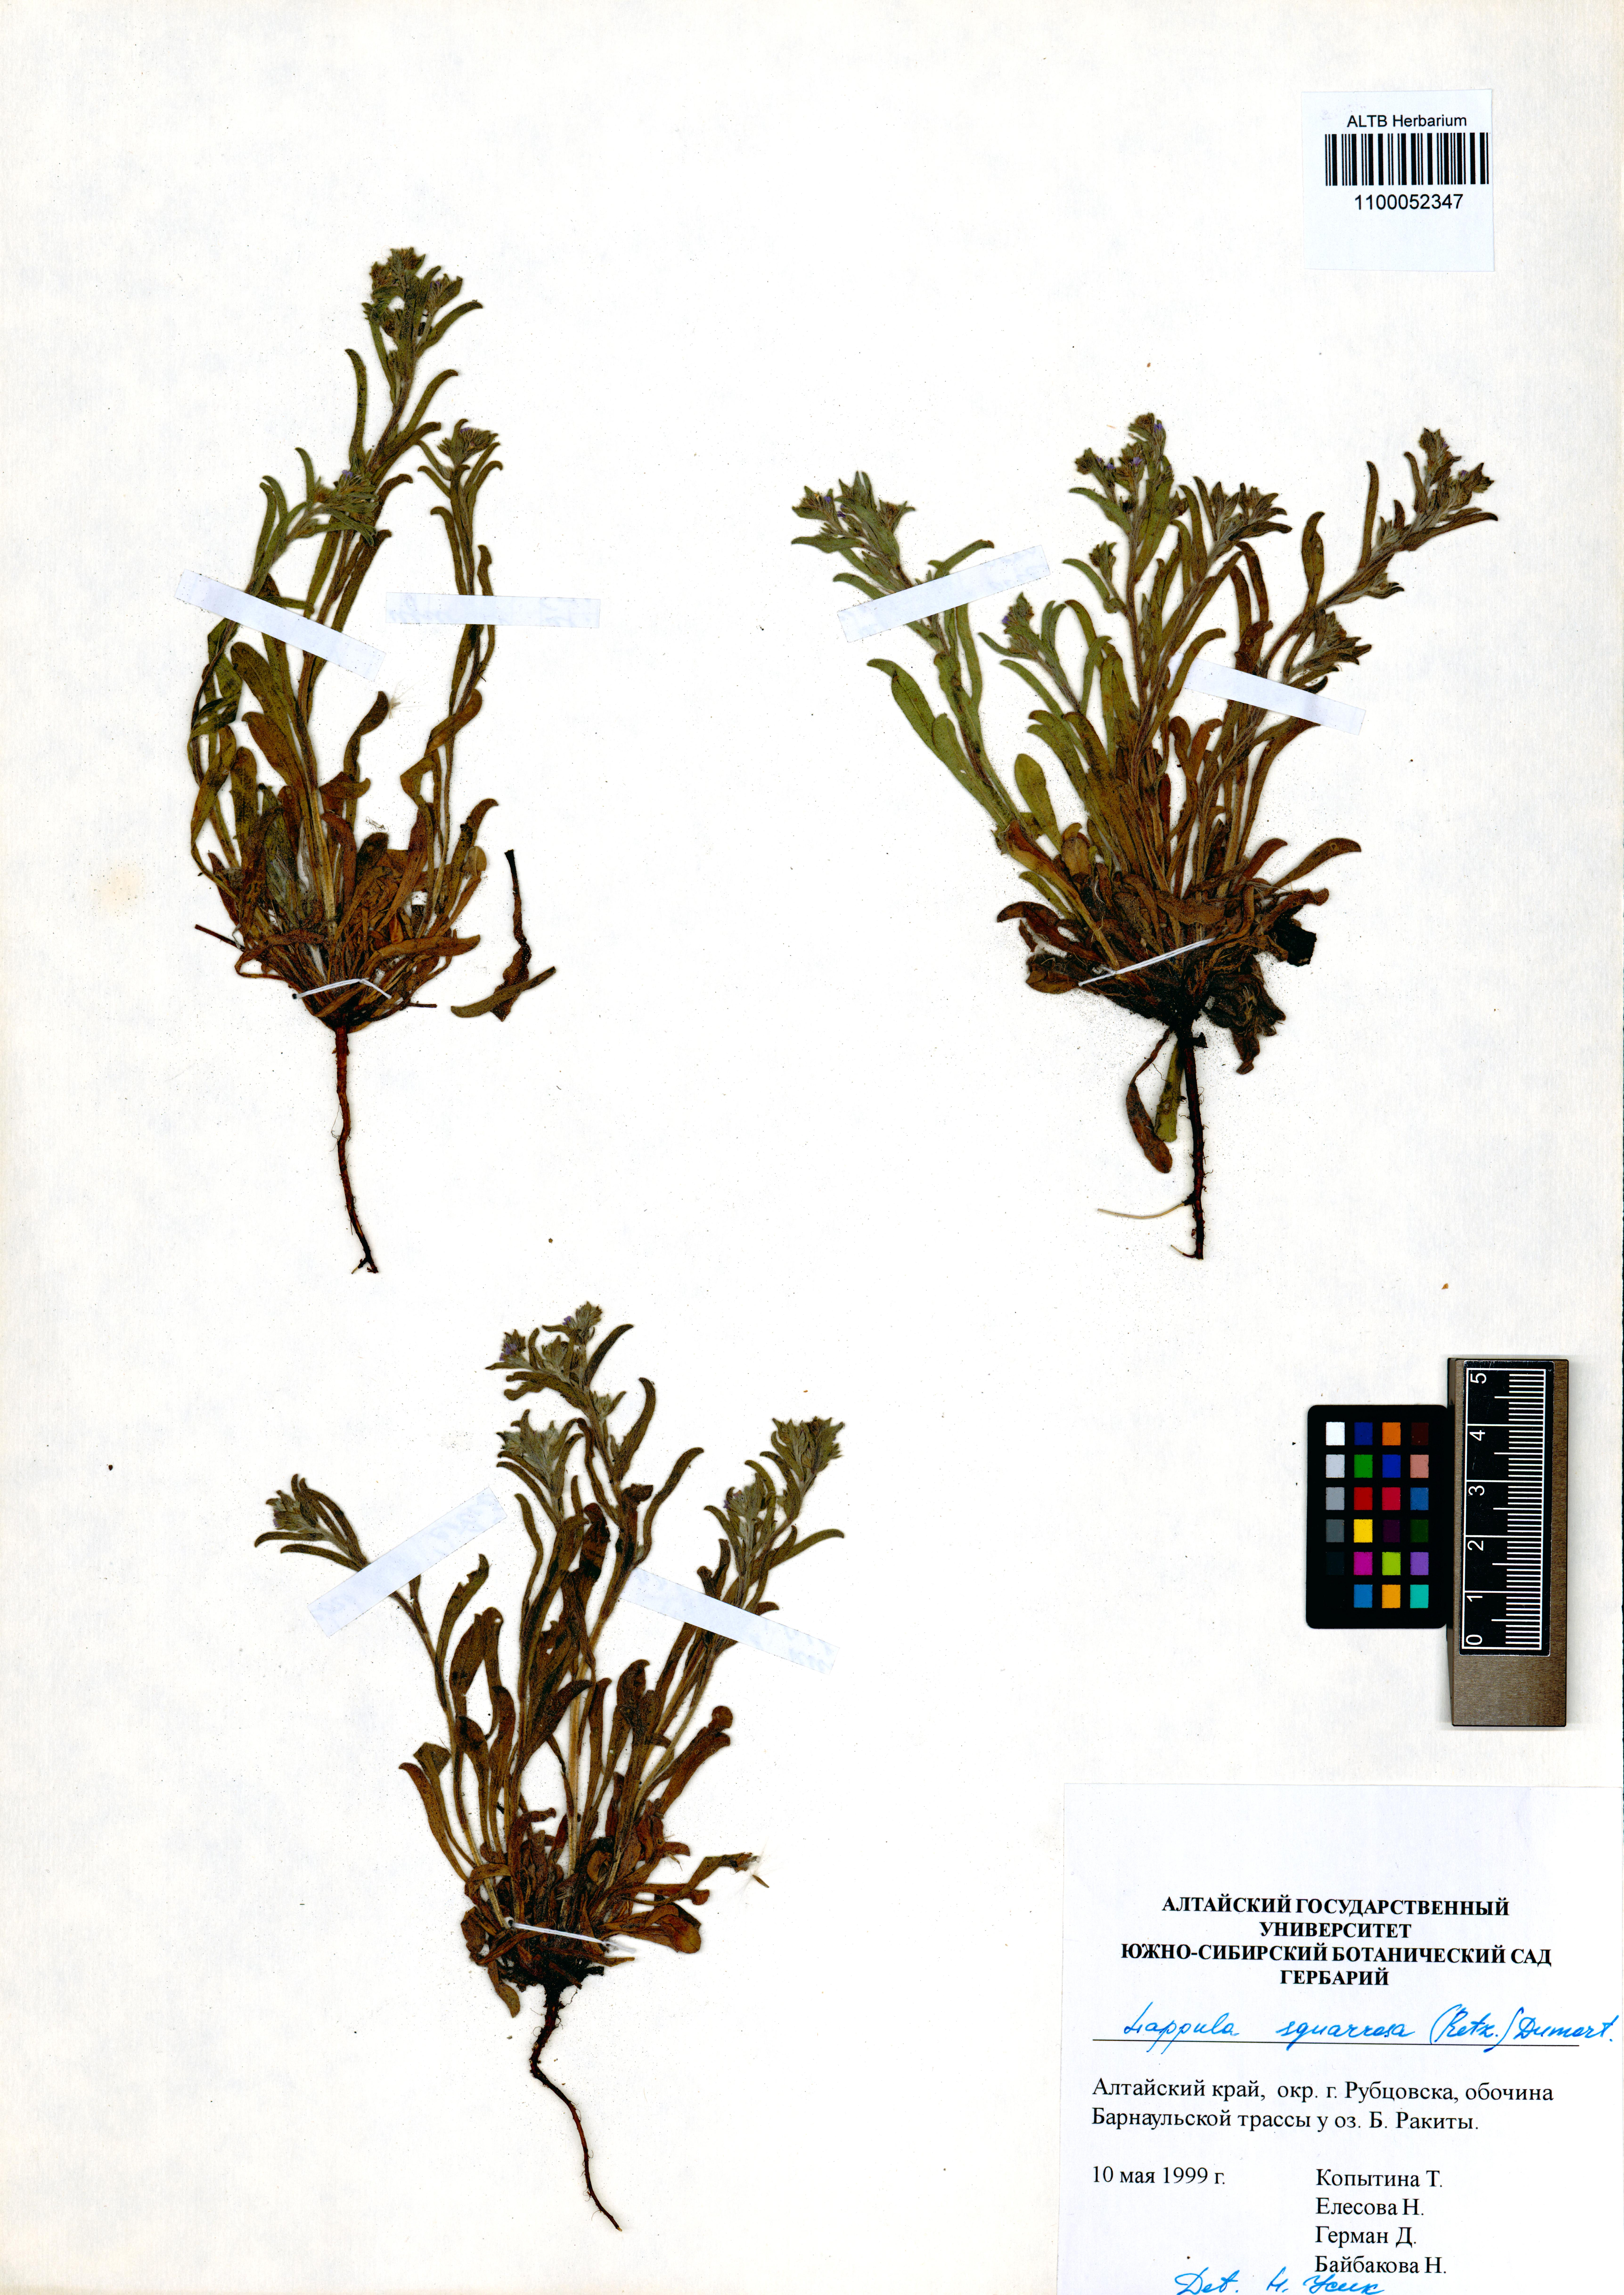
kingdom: Plantae
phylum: Tracheophyta
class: Magnoliopsida
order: Boraginales
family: Boraginaceae
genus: Lappula
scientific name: Lappula squarrosa
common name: European stickseed
